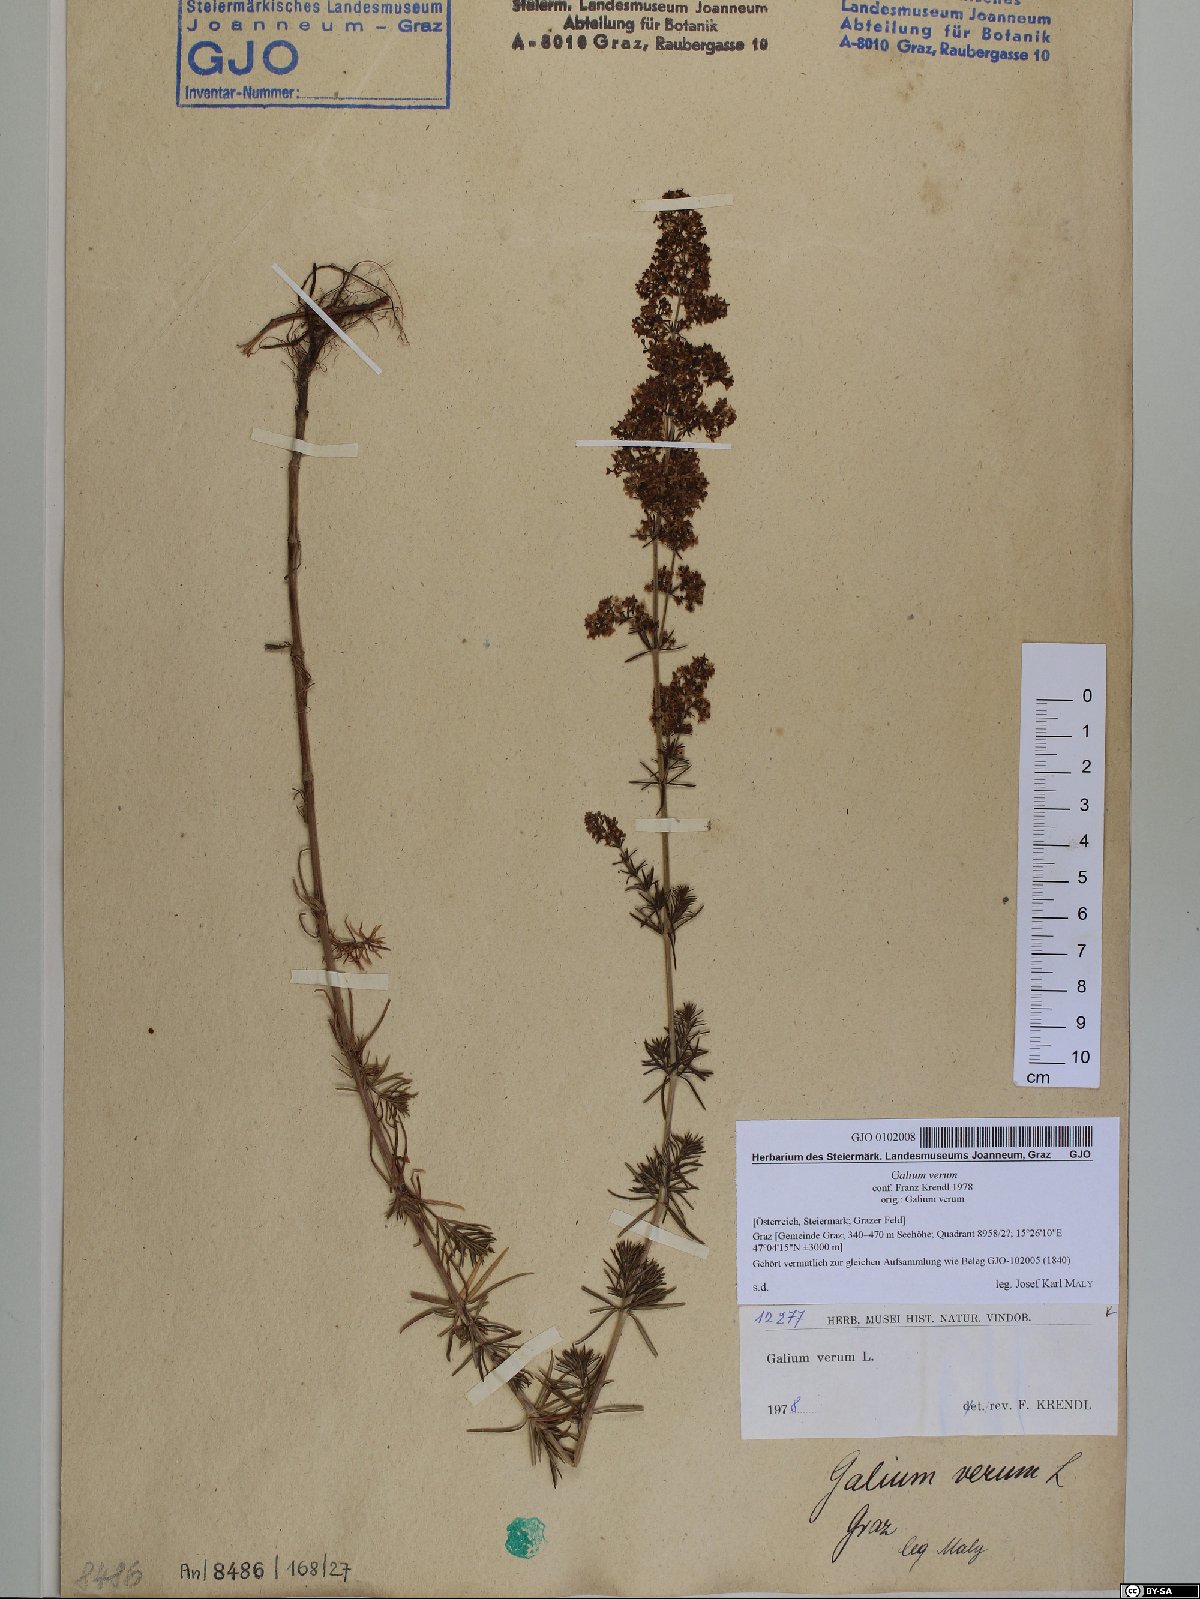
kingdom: Plantae
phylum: Tracheophyta
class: Magnoliopsida
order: Gentianales
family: Rubiaceae
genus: Galium
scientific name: Galium verum
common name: Lady's bedstraw
